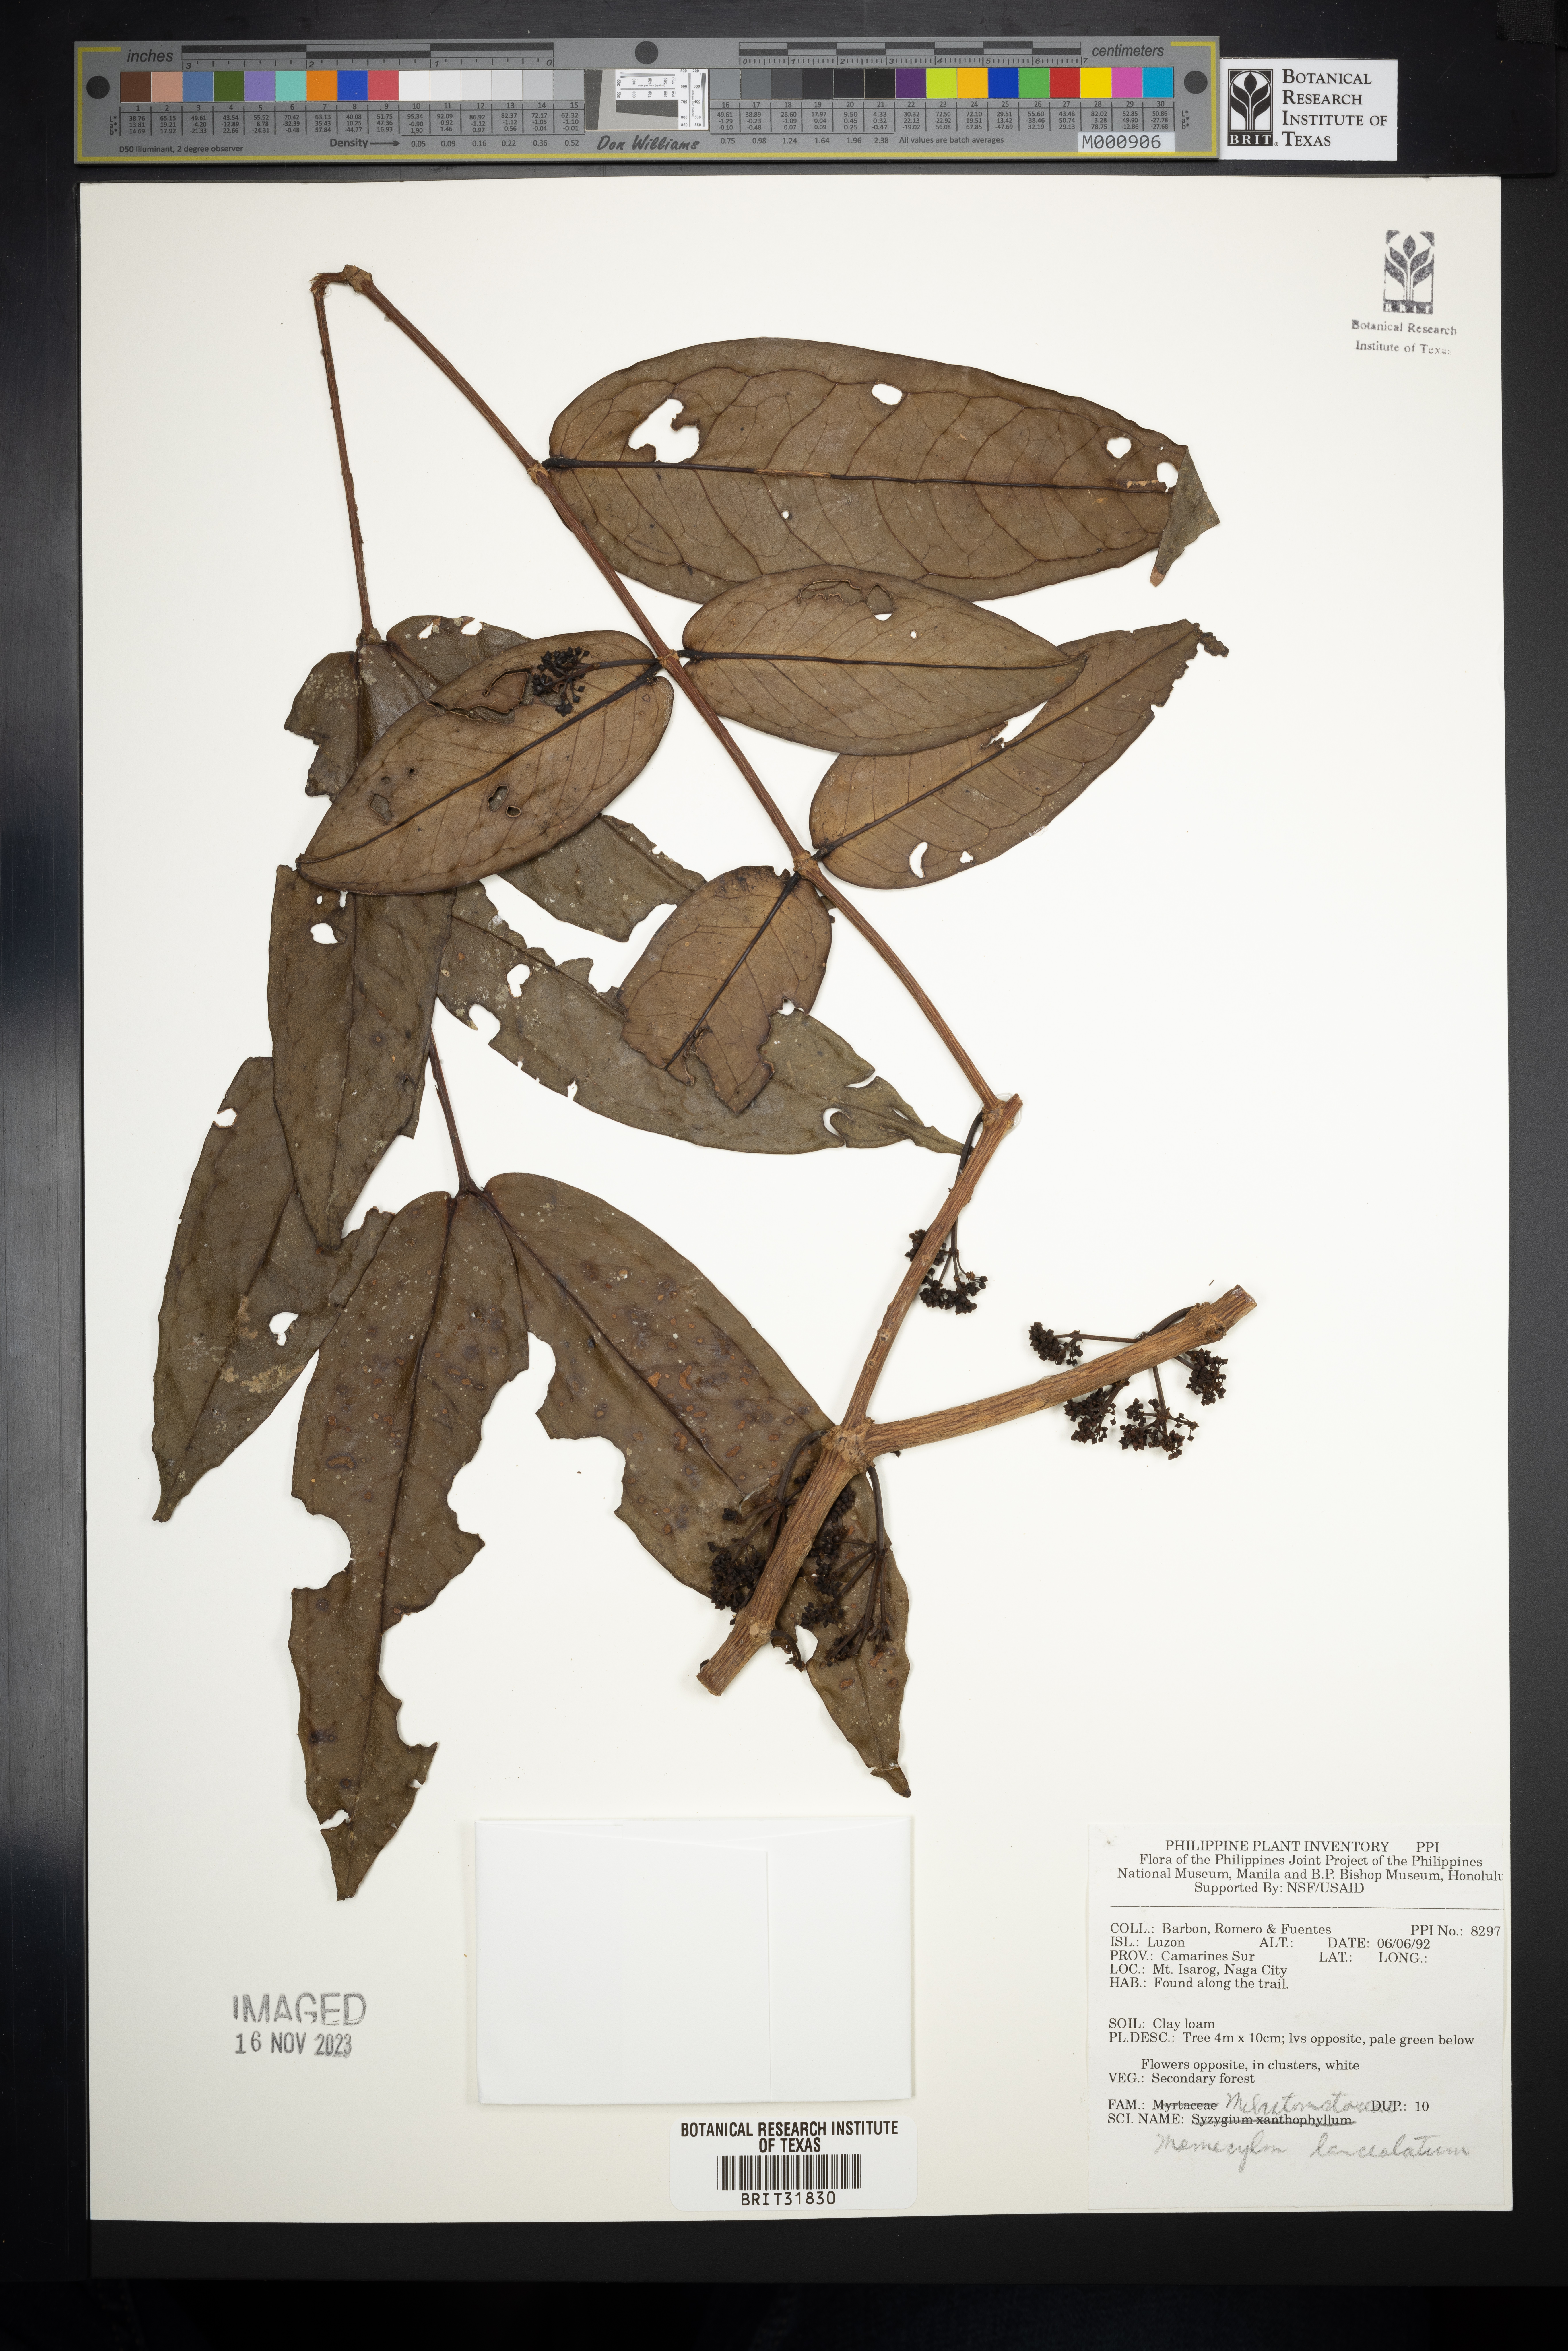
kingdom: Plantae
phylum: Tracheophyta
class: Magnoliopsida
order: Myrtales
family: Melastomataceae
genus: Memecylon
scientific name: Memecylon lanceolatum
